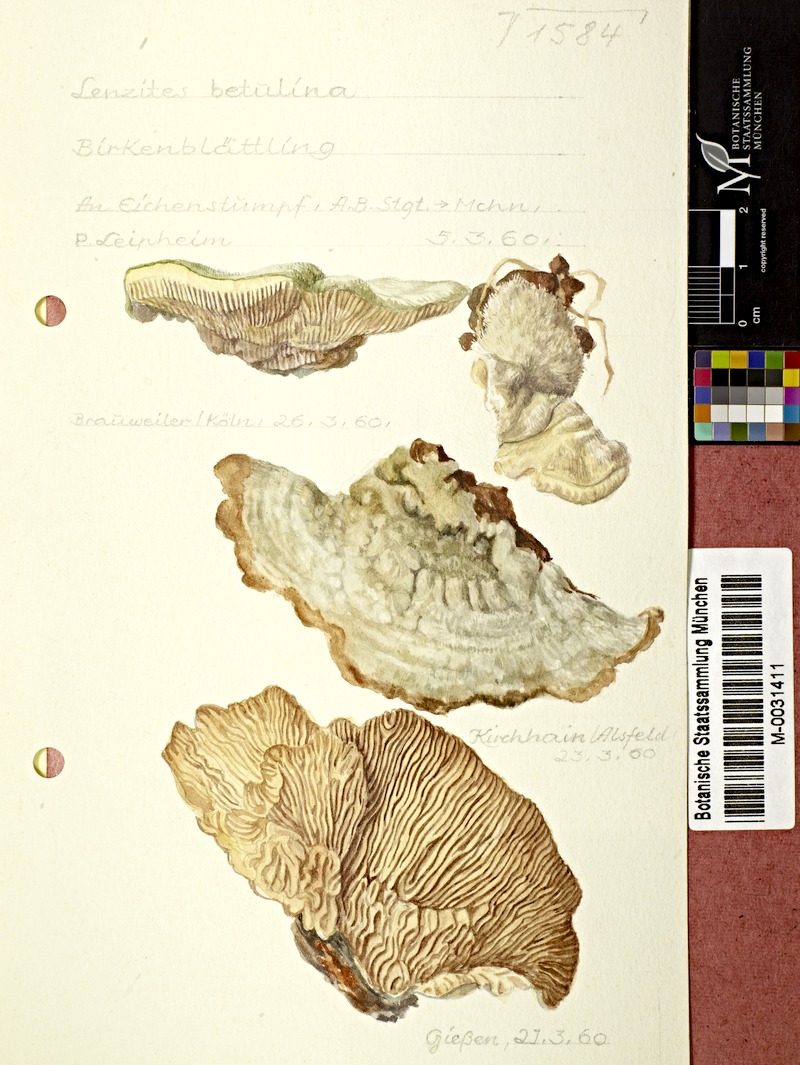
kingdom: Fungi
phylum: Basidiomycota
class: Agaricomycetes
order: Polyporales
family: Polyporaceae
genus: Lenzites
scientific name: Lenzites betulinus
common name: Birch mazegill
